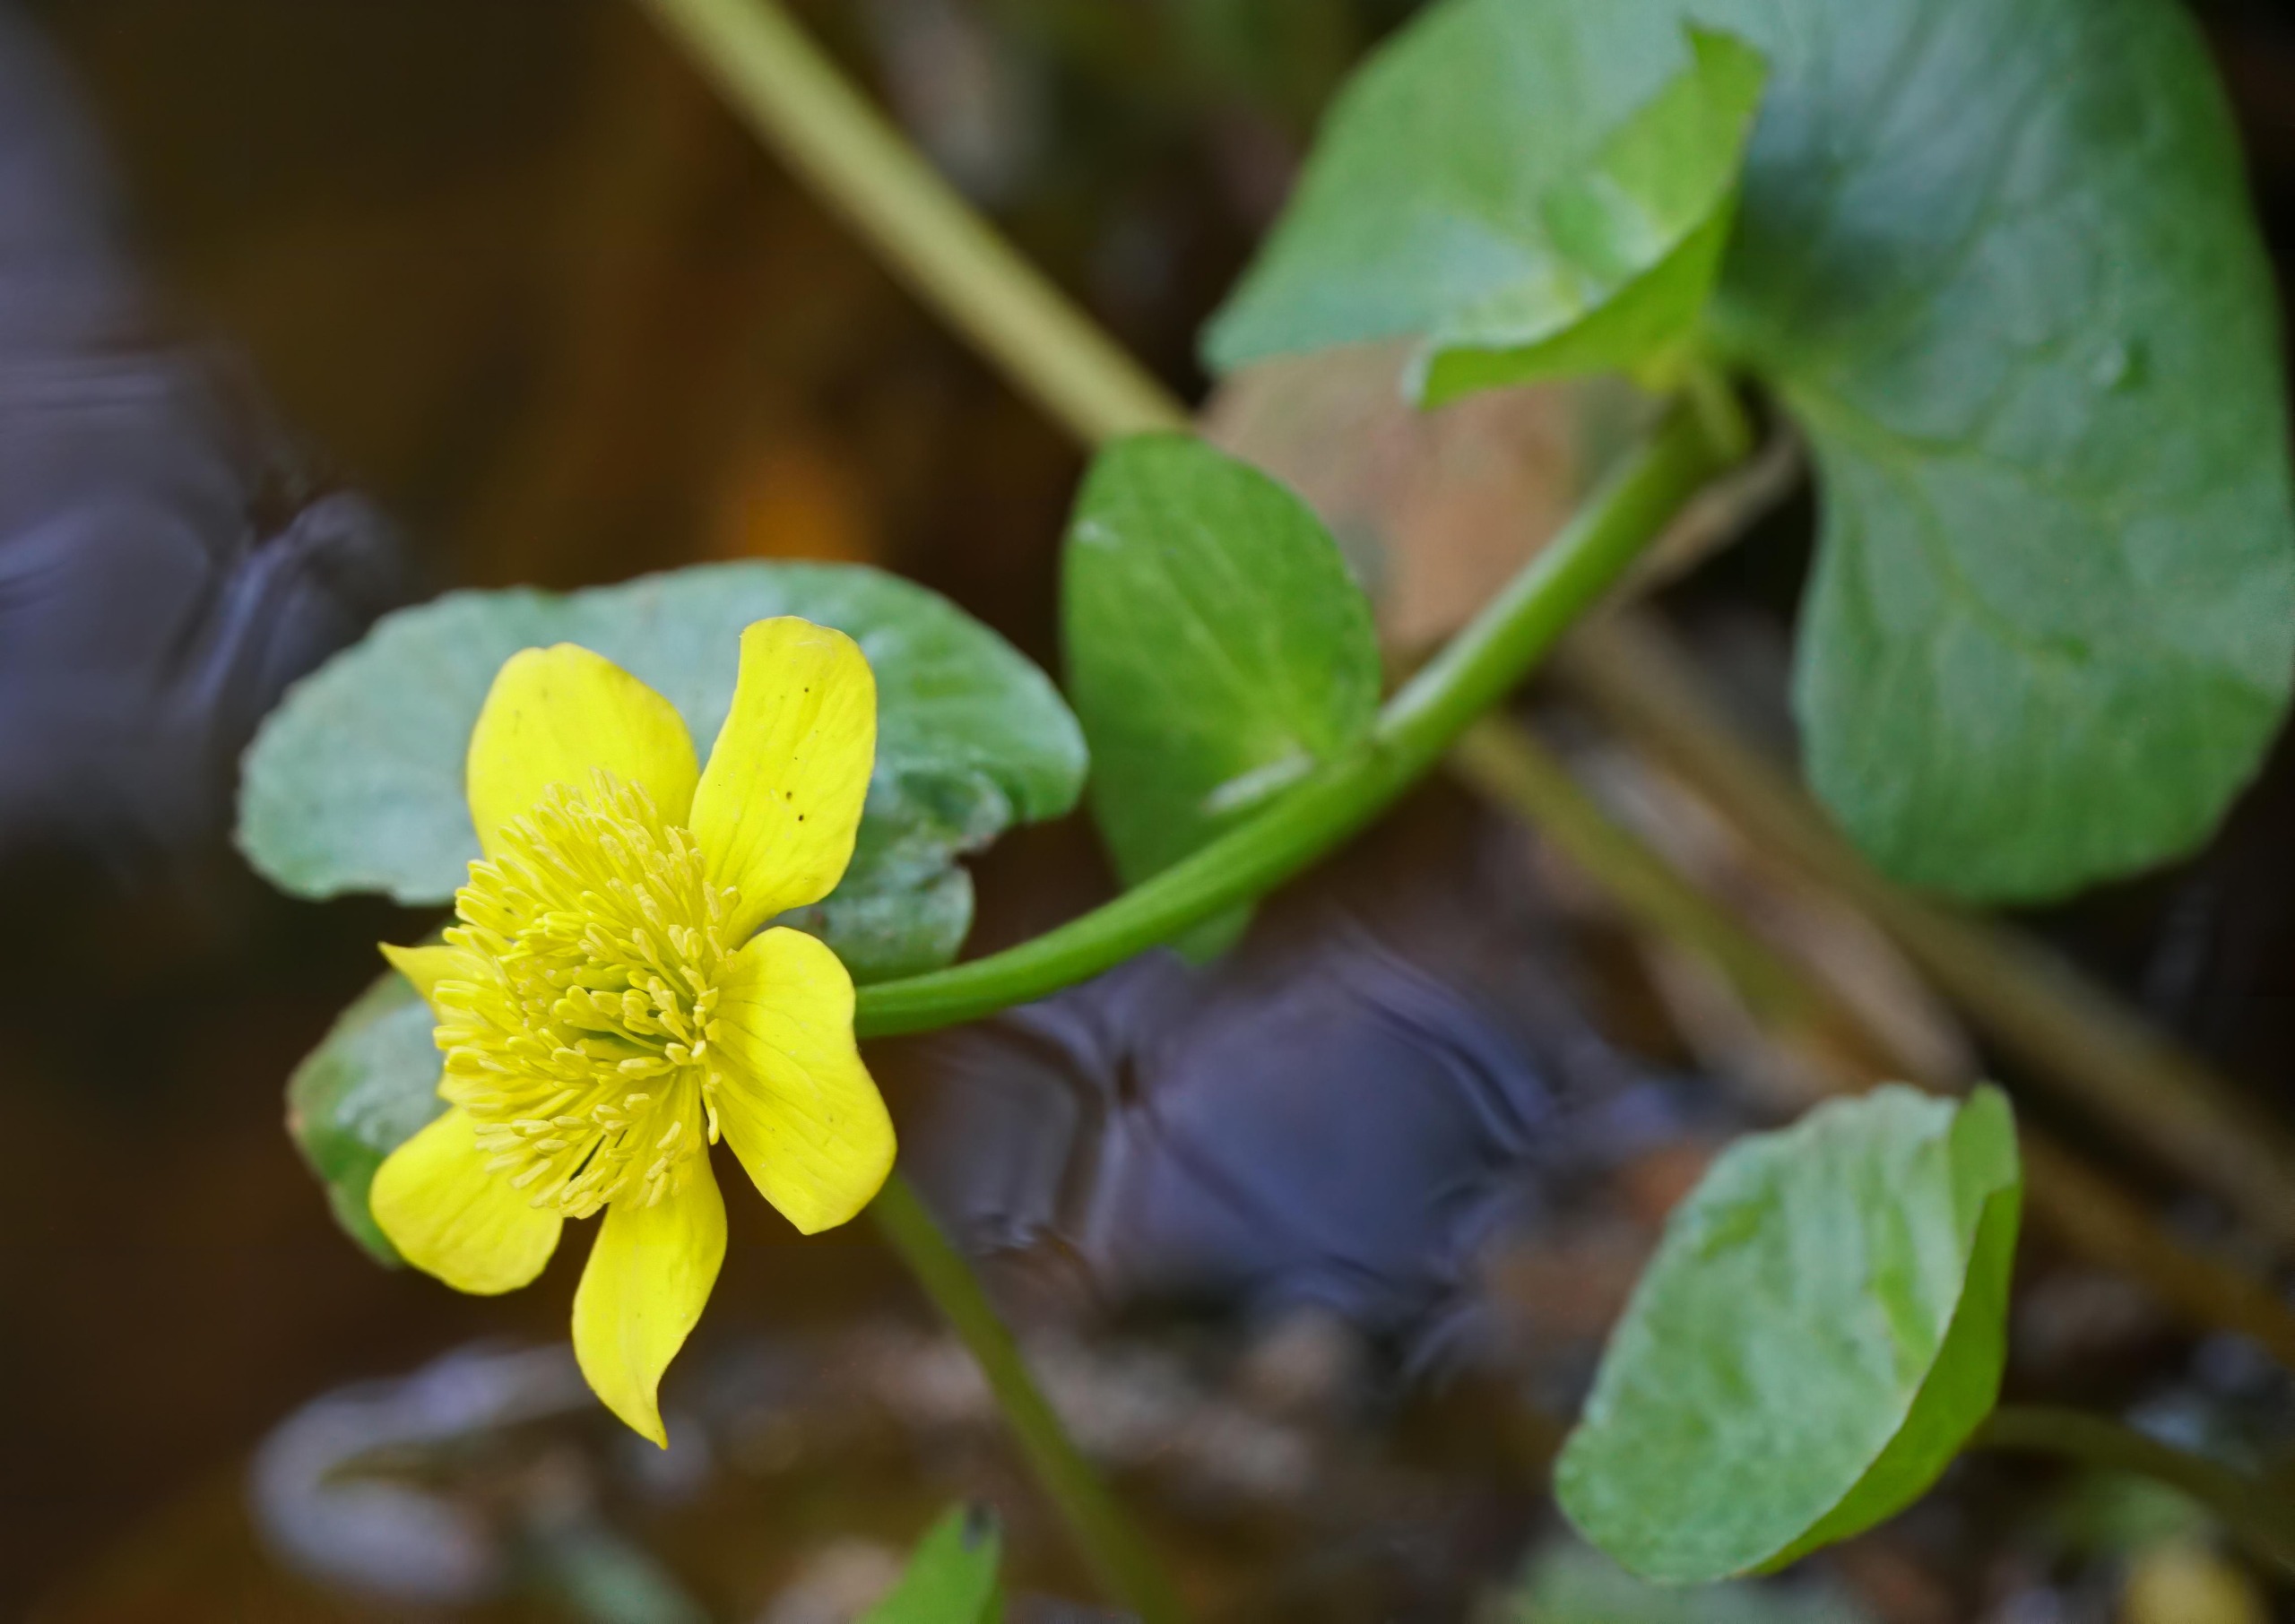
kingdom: Plantae
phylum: Tracheophyta
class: Magnoliopsida
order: Ranunculales
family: Ranunculaceae
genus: Caltha
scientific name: Caltha palustris
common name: Eng-kabbeleje
